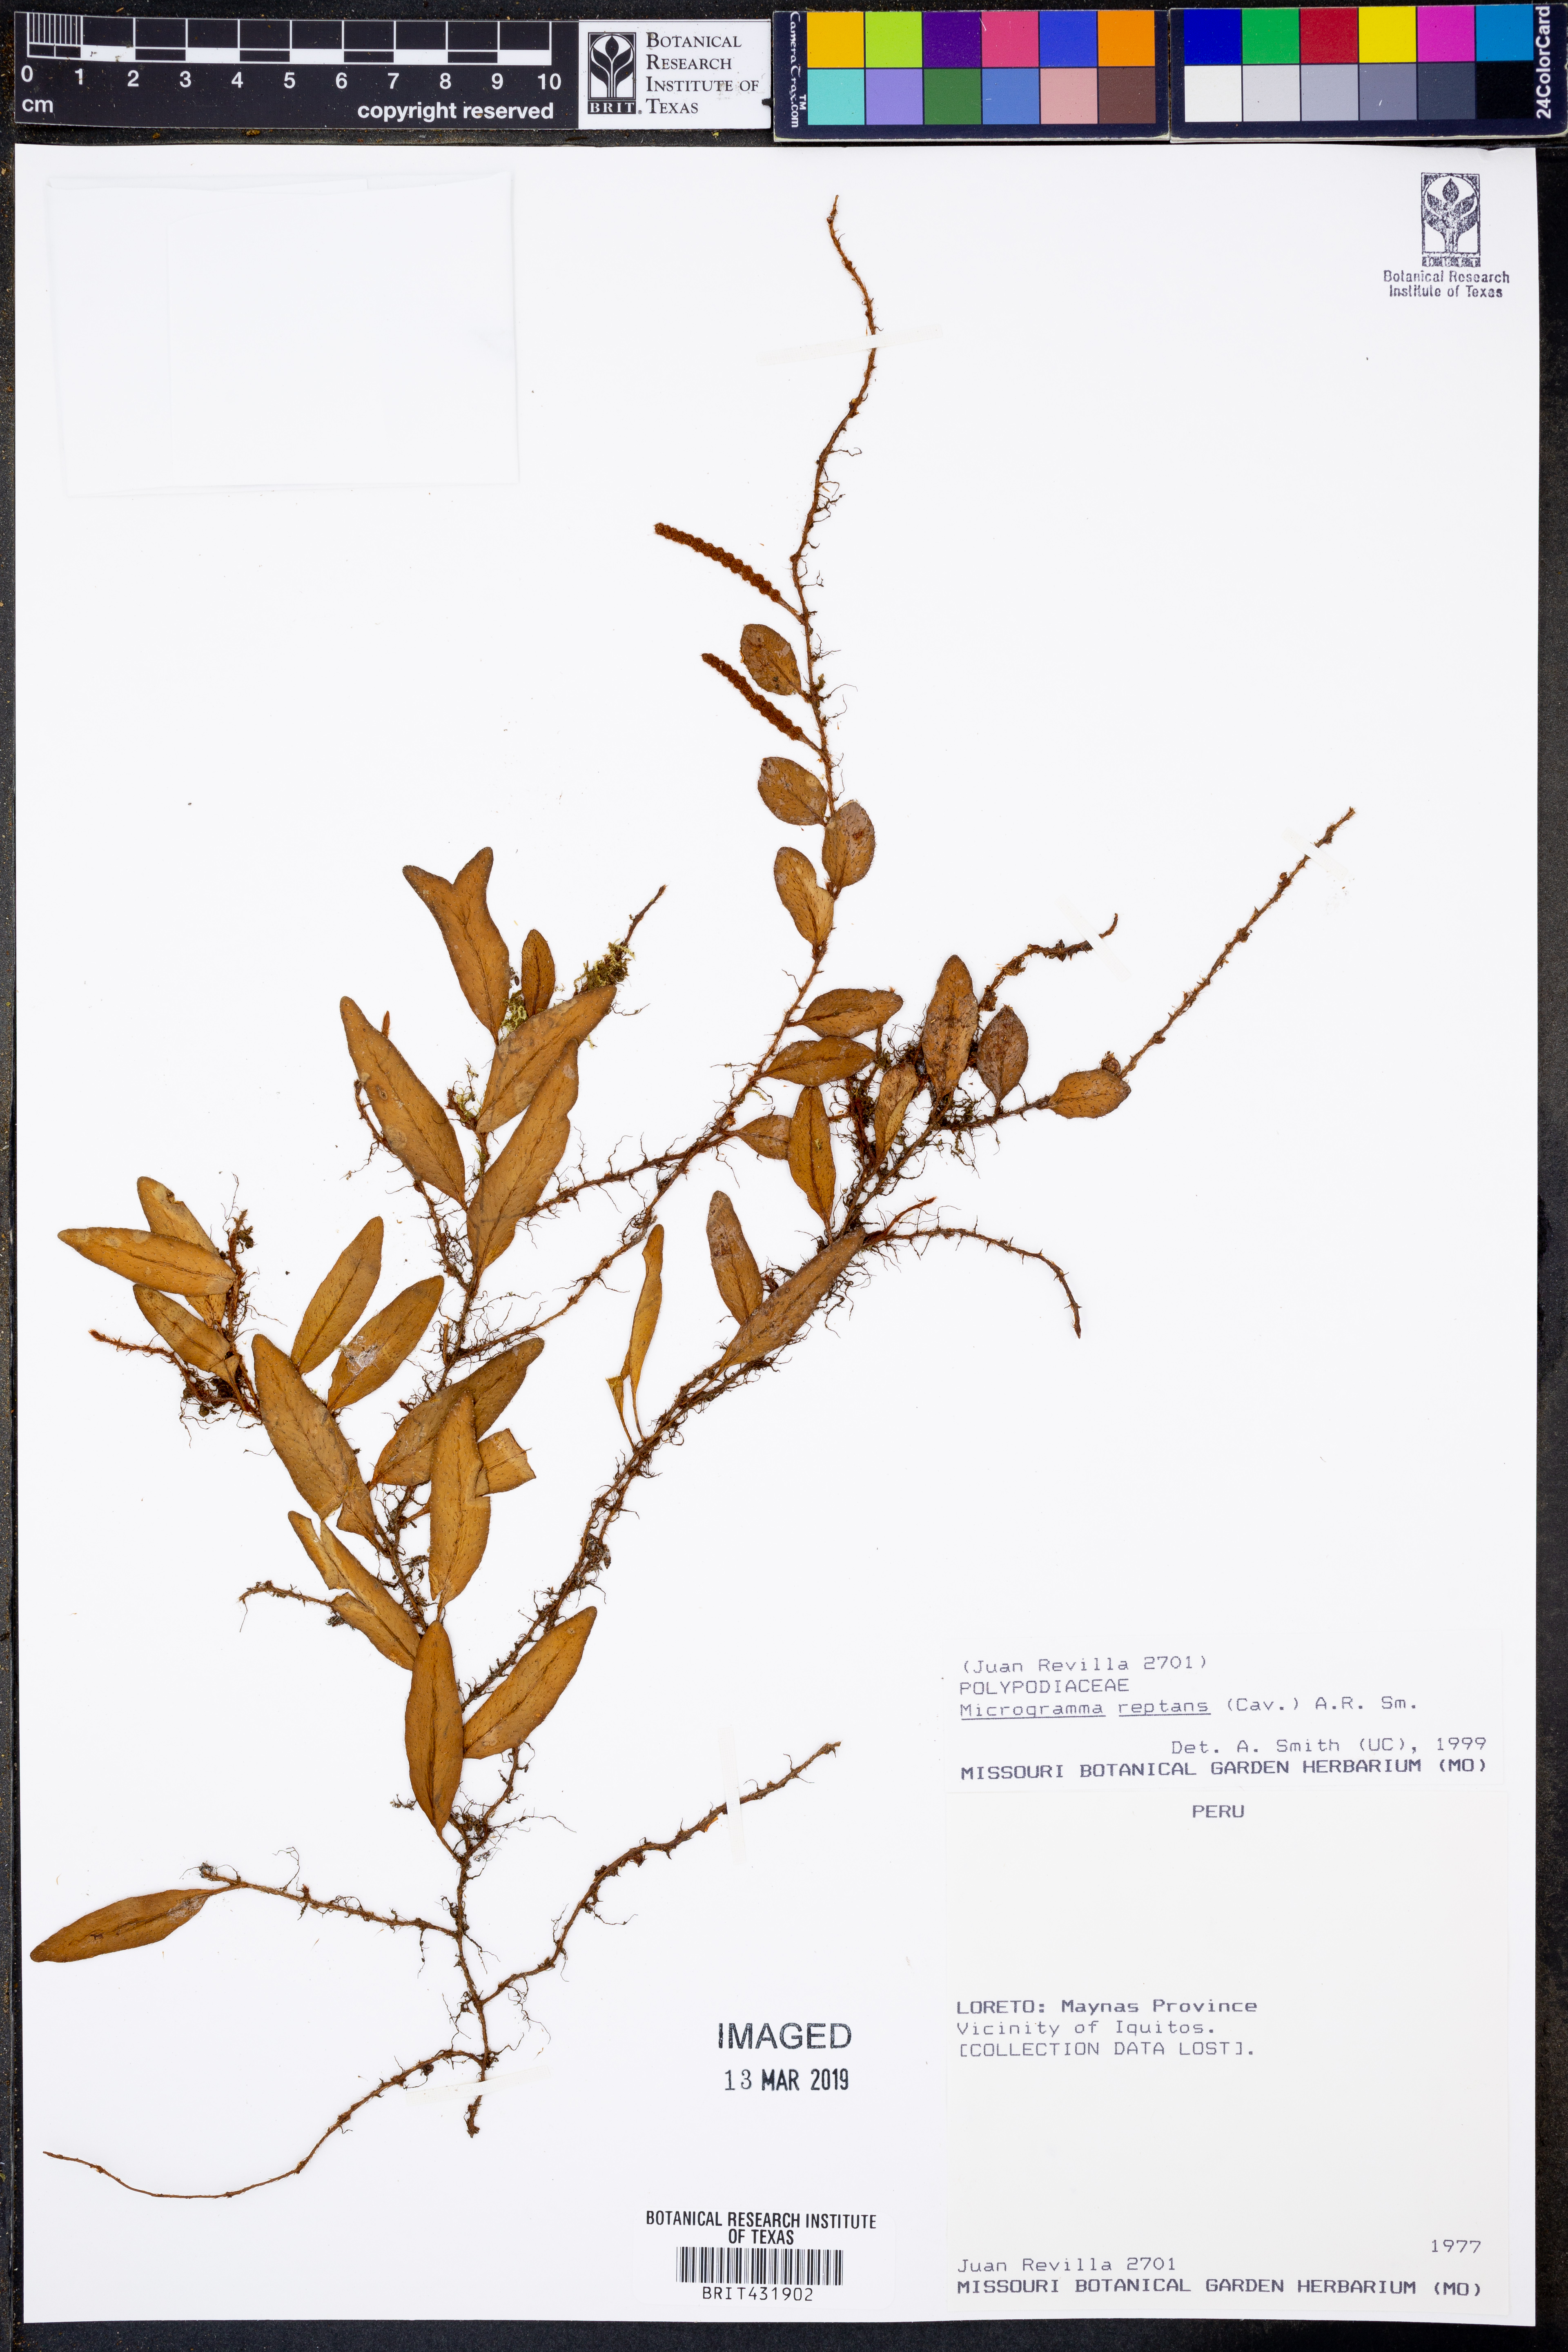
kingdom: Plantae
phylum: Tracheophyta
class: Polypodiopsida
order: Polypodiales
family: Polypodiaceae
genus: Microgramma
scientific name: Microgramma reptans
